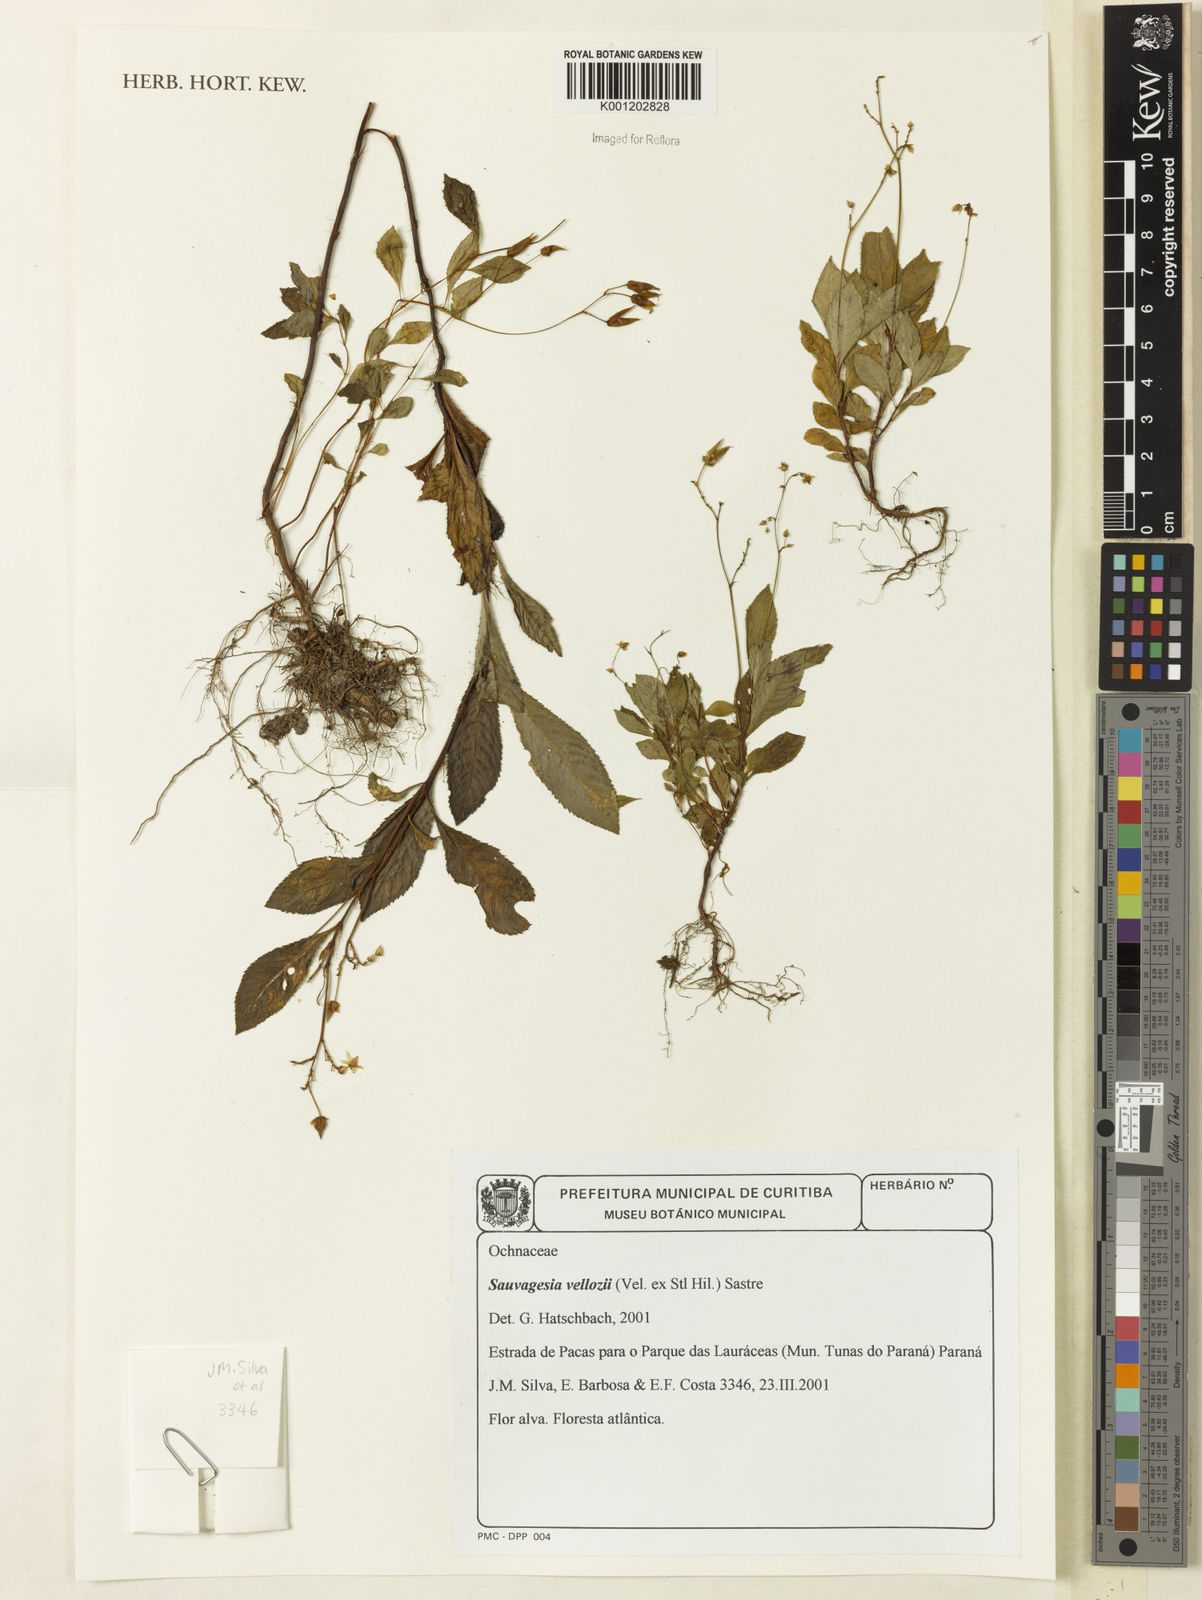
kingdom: Plantae
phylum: Tracheophyta
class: Magnoliopsida
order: Malpighiales
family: Ochnaceae
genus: Sauvagesia
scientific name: Sauvagesia
